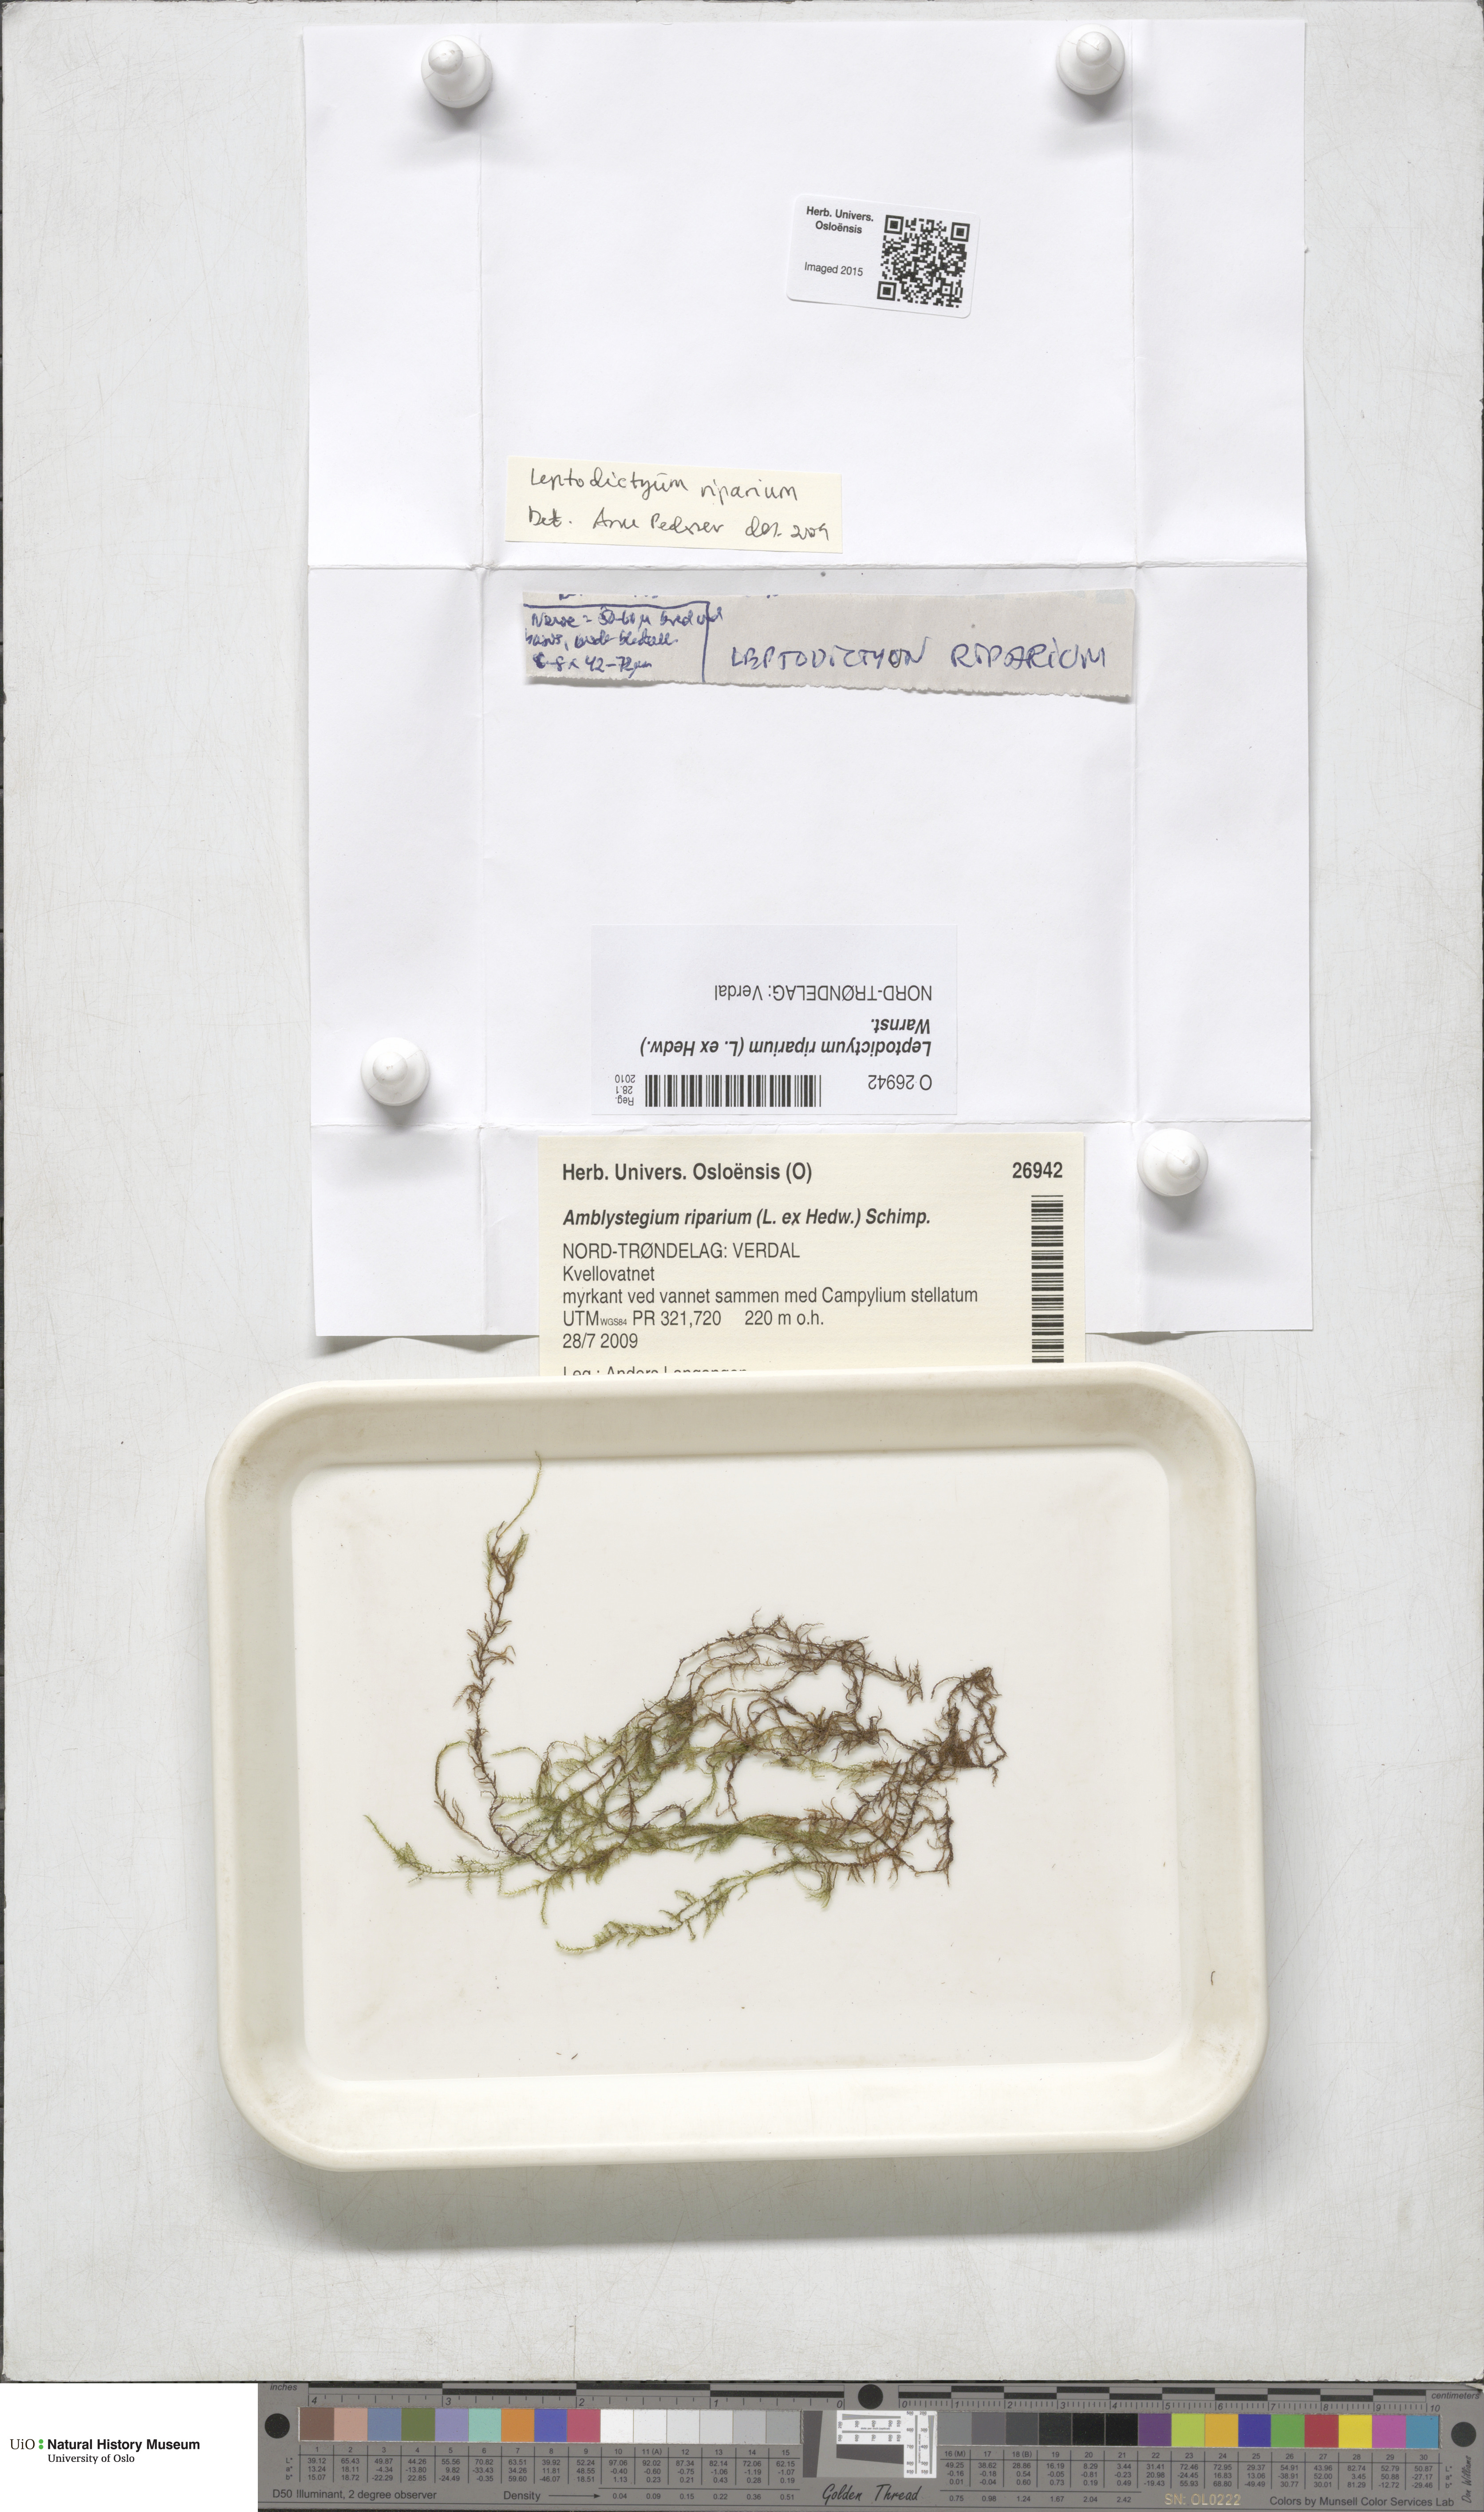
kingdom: Plantae
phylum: Bryophyta
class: Bryopsida
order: Hypnales
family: Amblystegiaceae
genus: Leptodictyum
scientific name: Leptodictyum riparium
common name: Riparian feather moss
